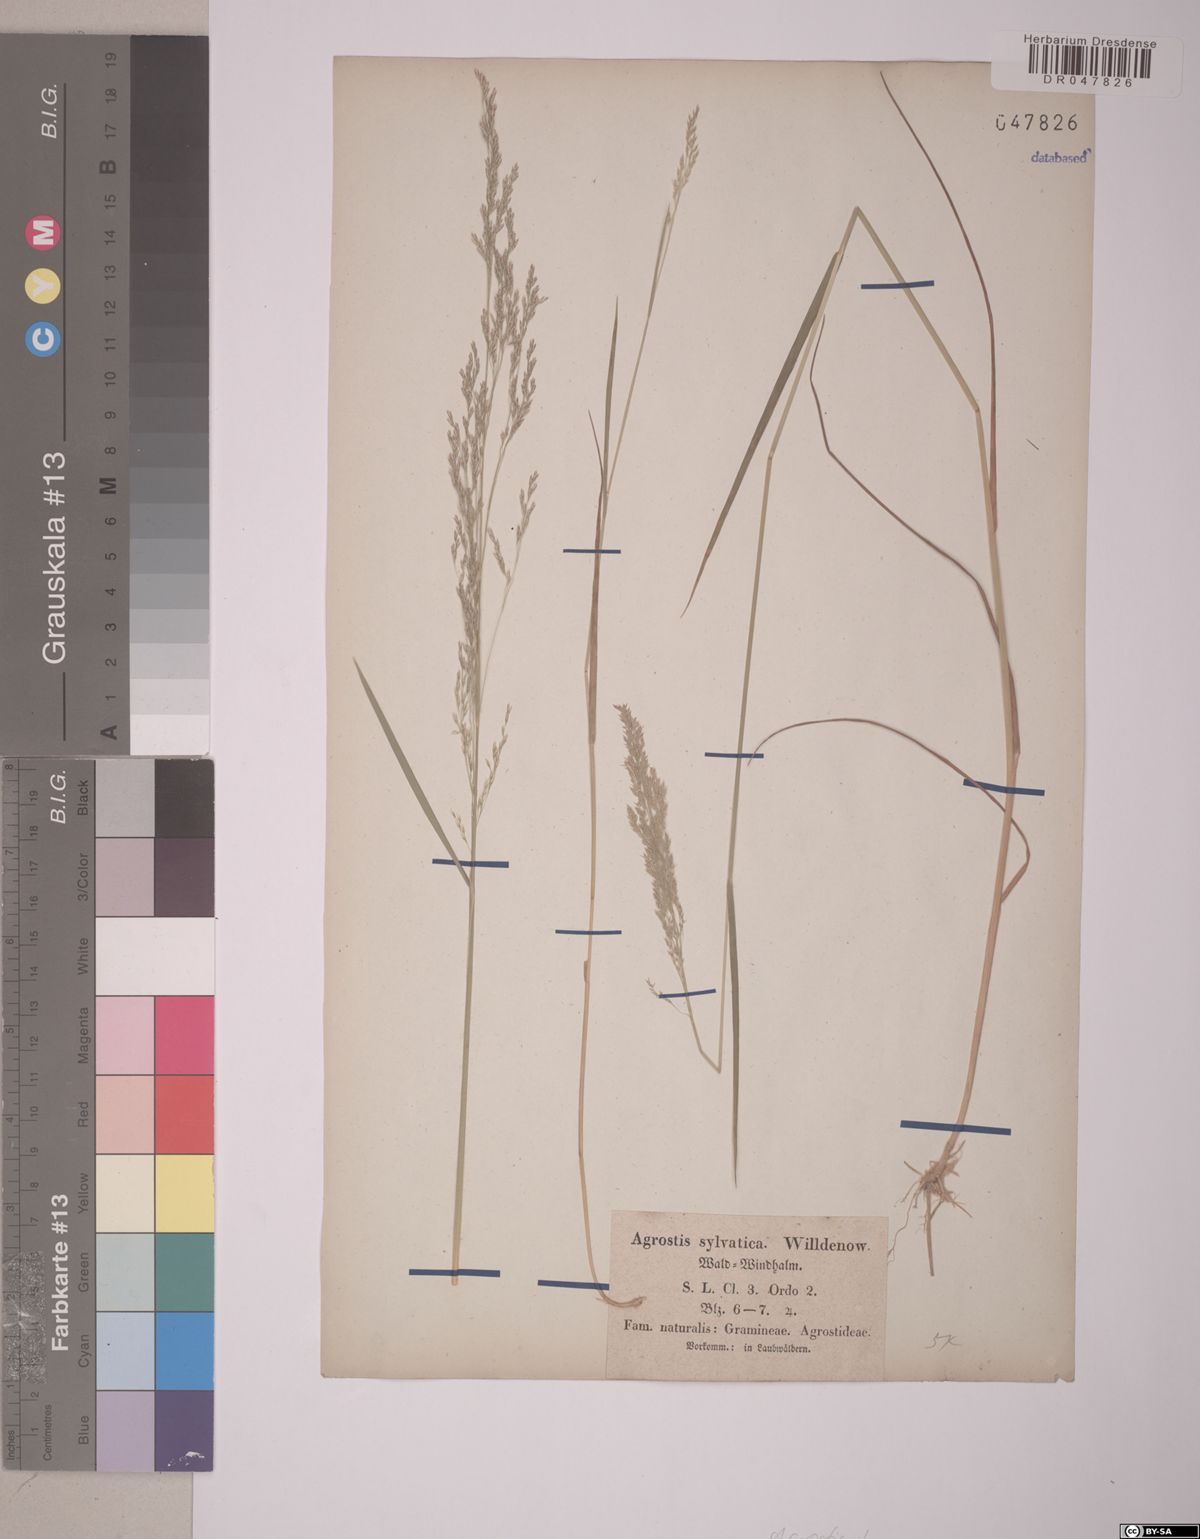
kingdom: Plantae
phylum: Tracheophyta
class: Liliopsida
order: Poales
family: Poaceae
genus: Agrostis
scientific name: Agrostis
